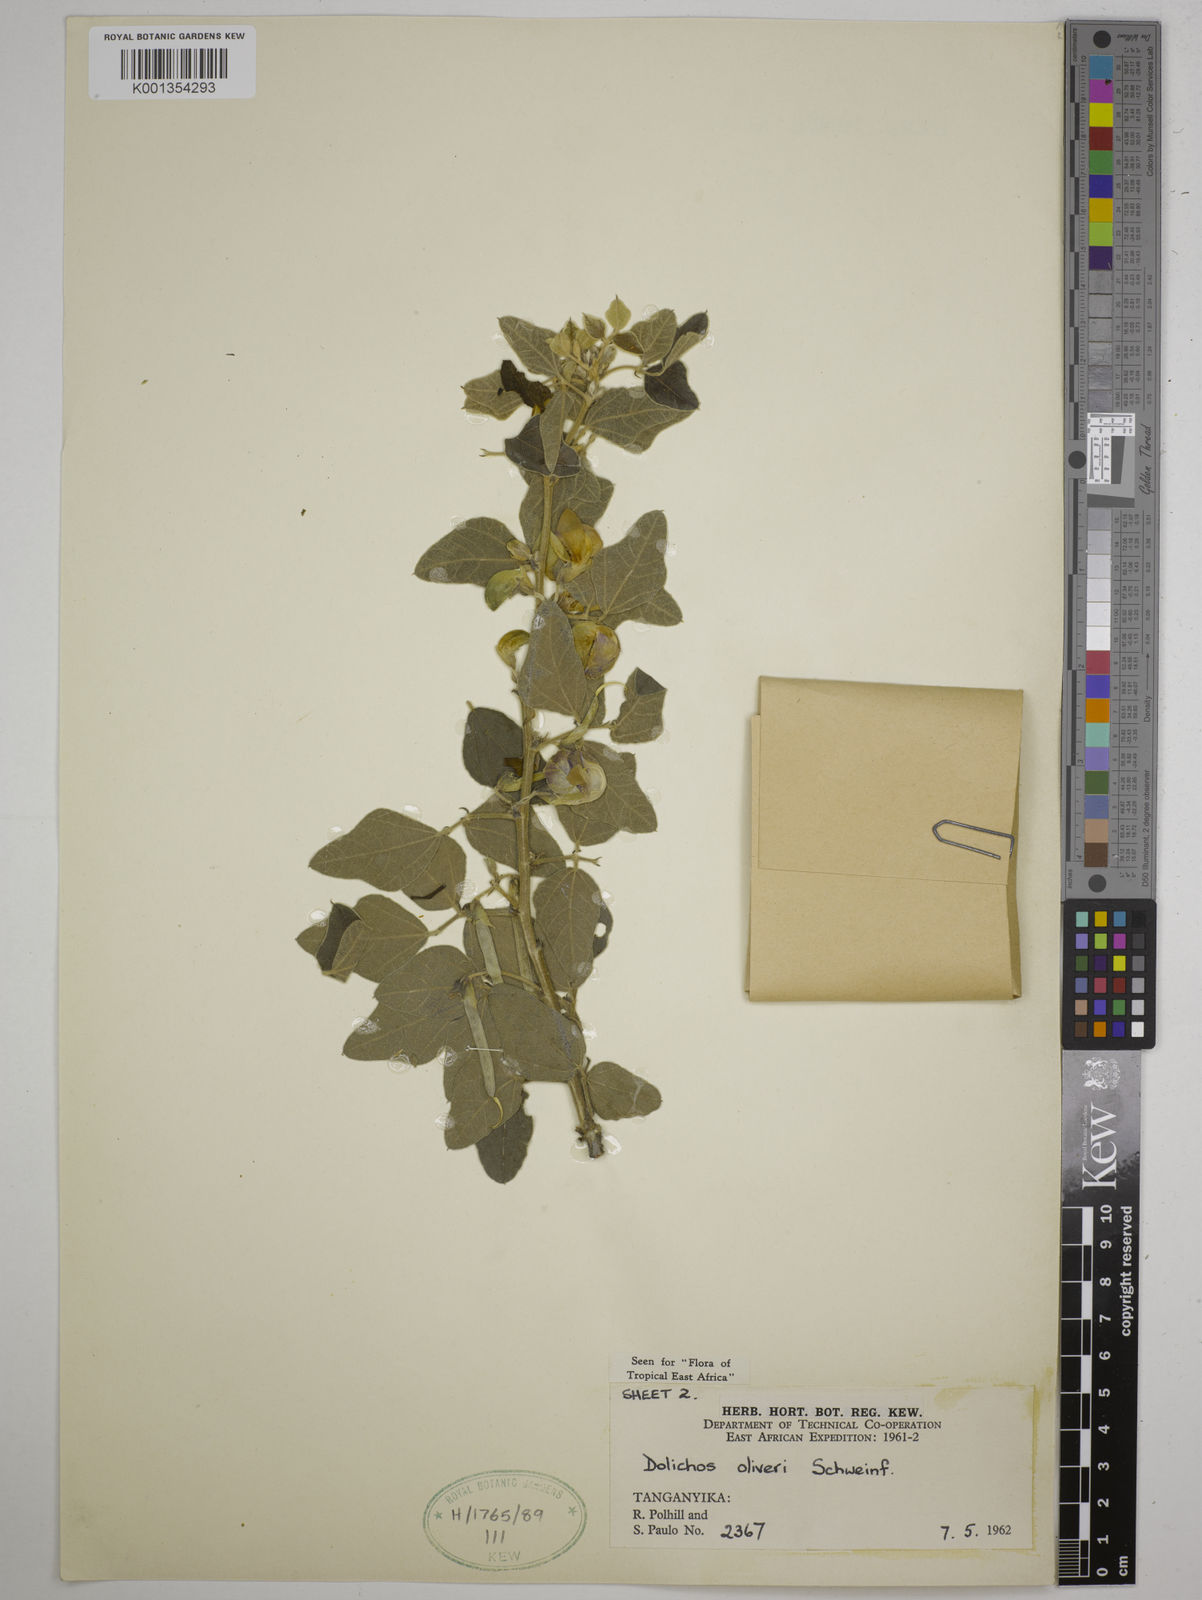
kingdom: Plantae
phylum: Tracheophyta
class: Magnoliopsida
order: Fabales
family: Fabaceae
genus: Dolichos
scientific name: Dolichos oliveri
